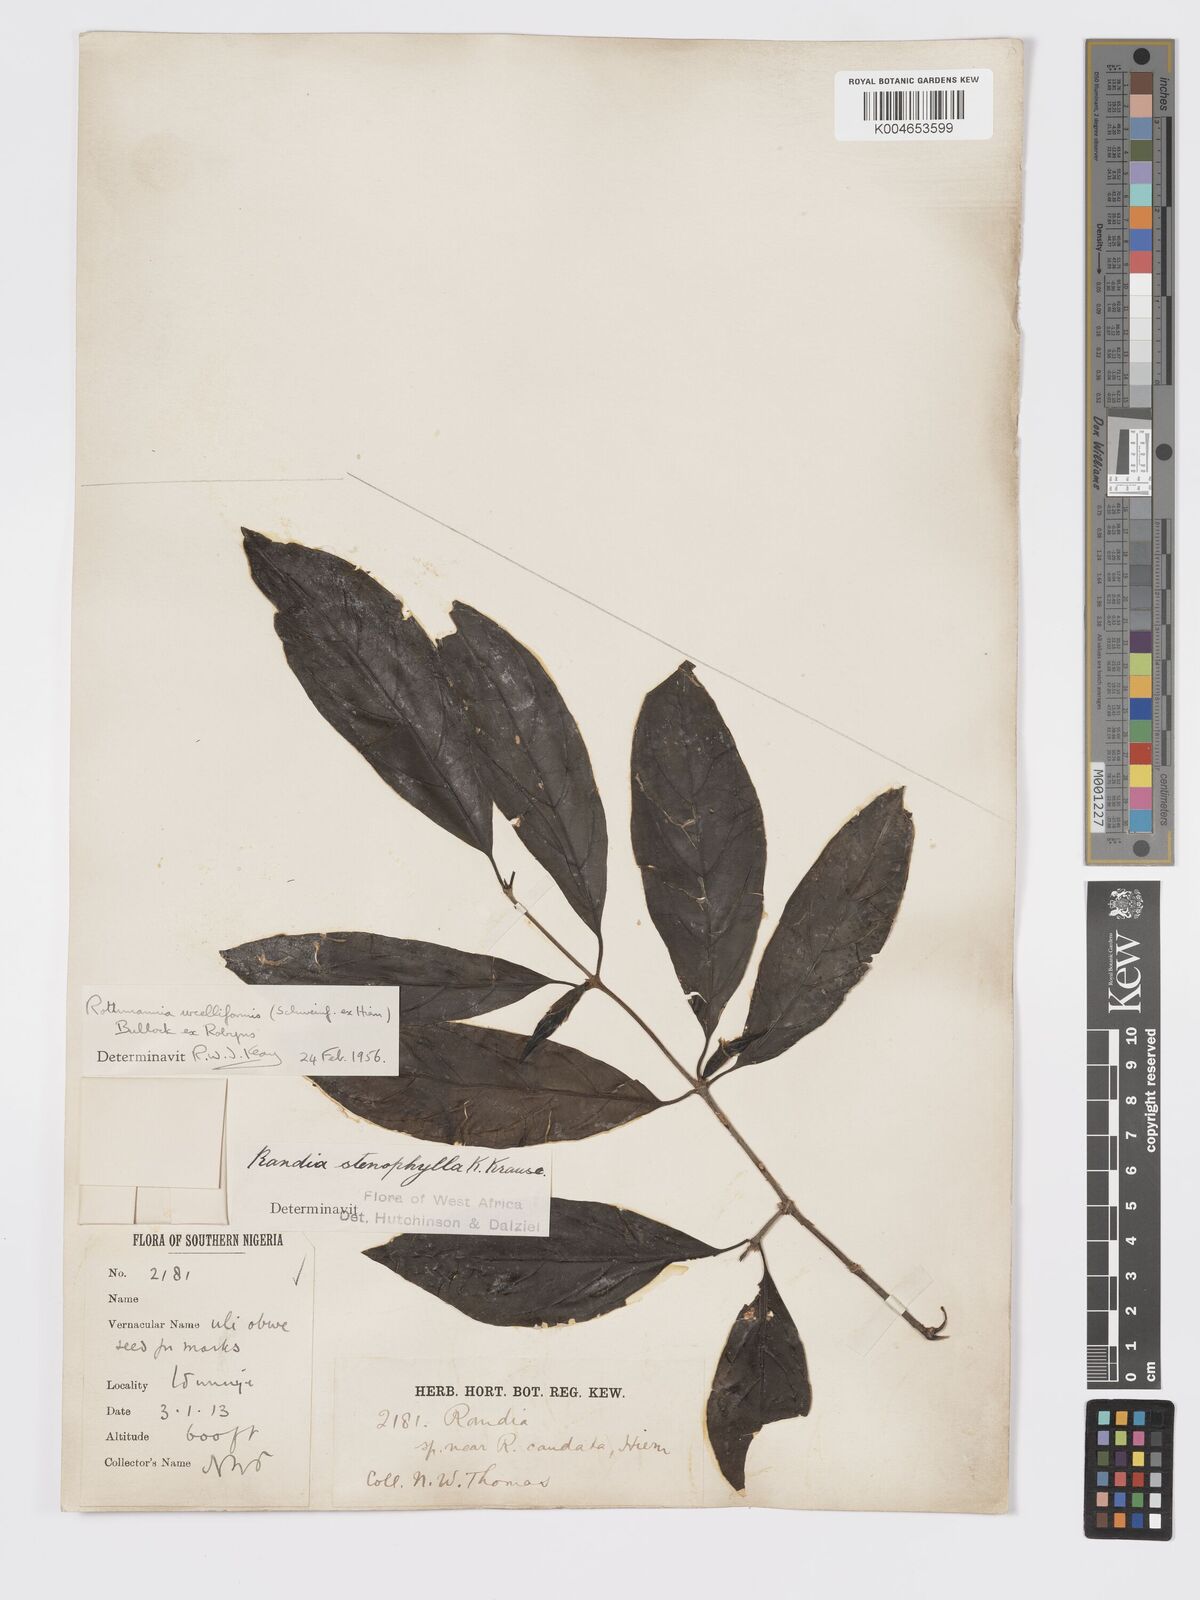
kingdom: Plantae
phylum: Tracheophyta
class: Magnoliopsida
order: Gentianales
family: Rubiaceae
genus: Rothmannia
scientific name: Rothmannia urcelliformis
